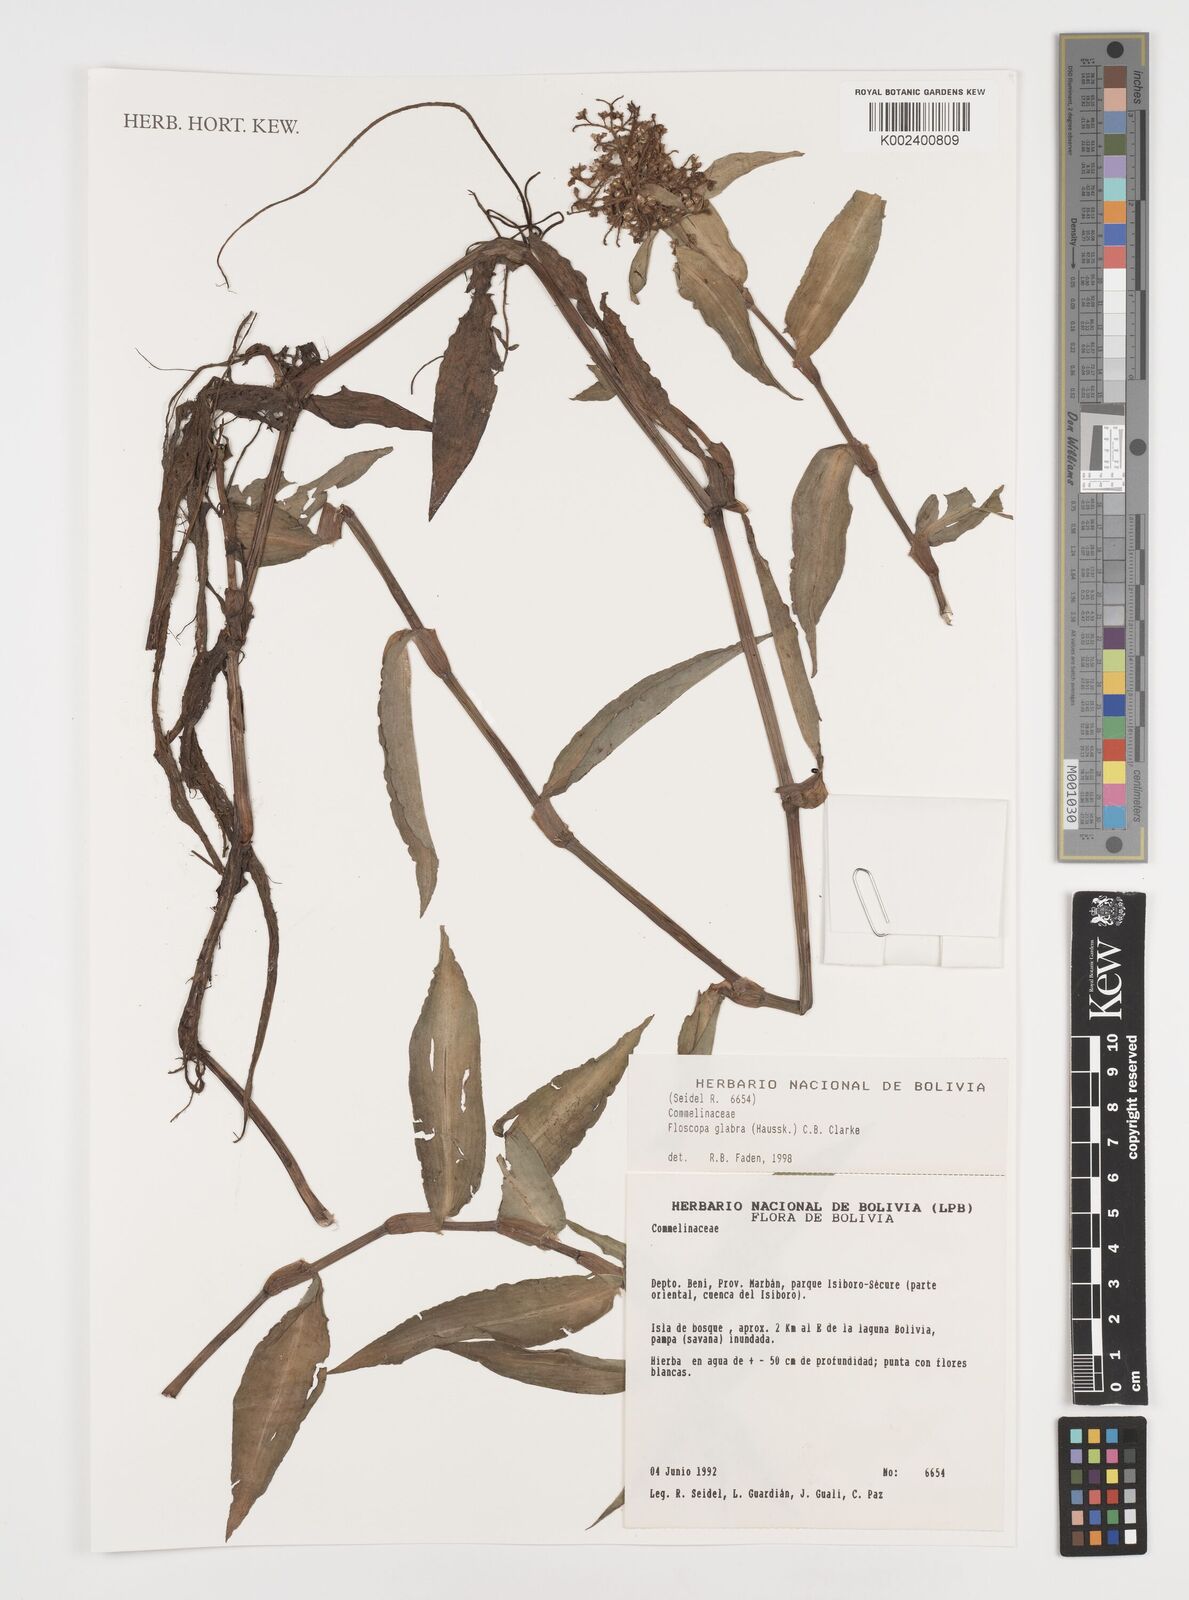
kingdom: Plantae
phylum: Tracheophyta
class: Liliopsida
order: Commelinales
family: Commelinaceae
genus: Floscopa
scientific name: Floscopa
